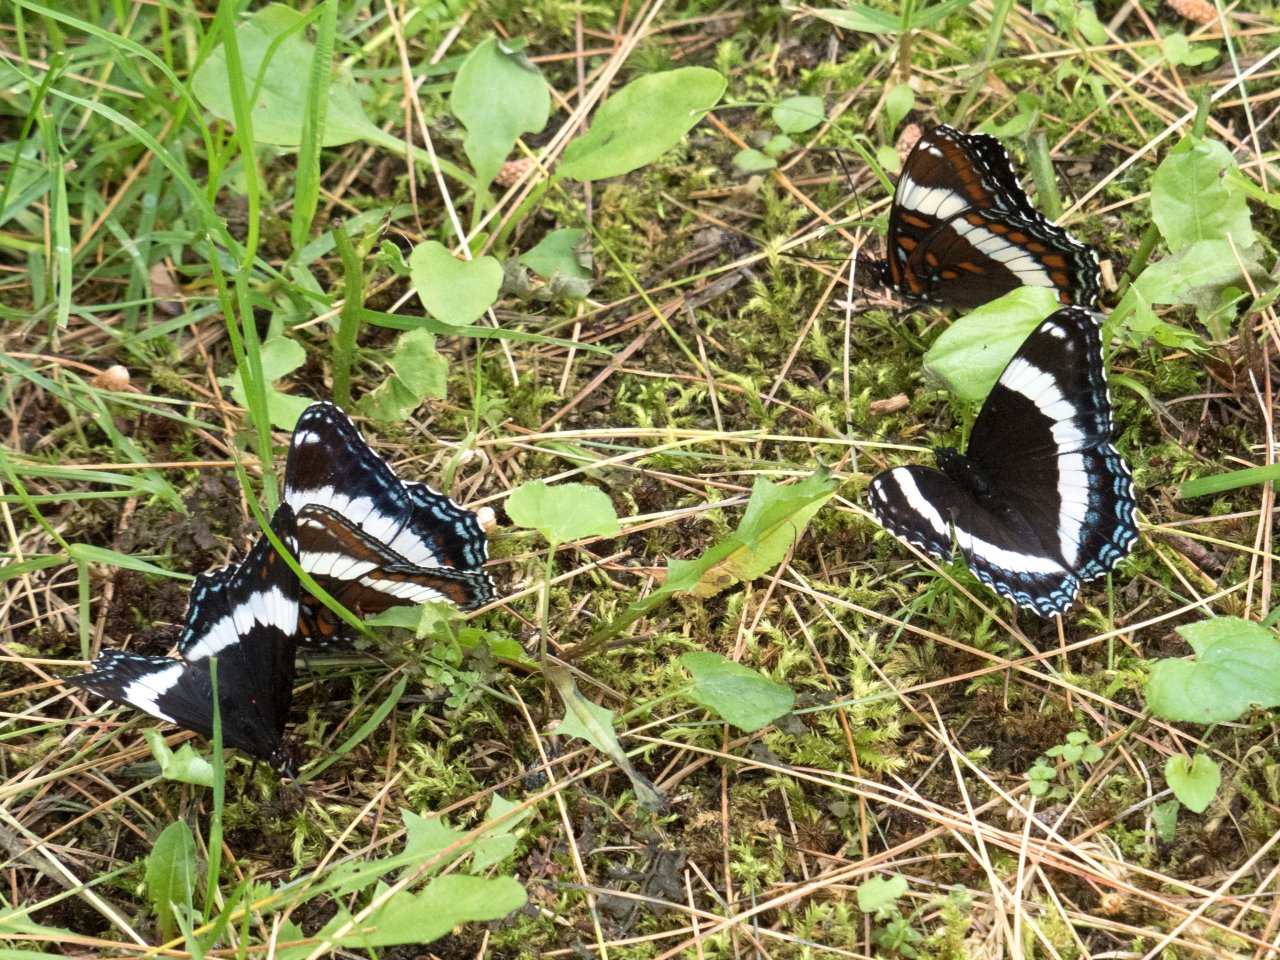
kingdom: Animalia
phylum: Arthropoda
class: Insecta
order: Lepidoptera
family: Nymphalidae
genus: Limenitis
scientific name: Limenitis arthemis
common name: Red-spotted Admiral
